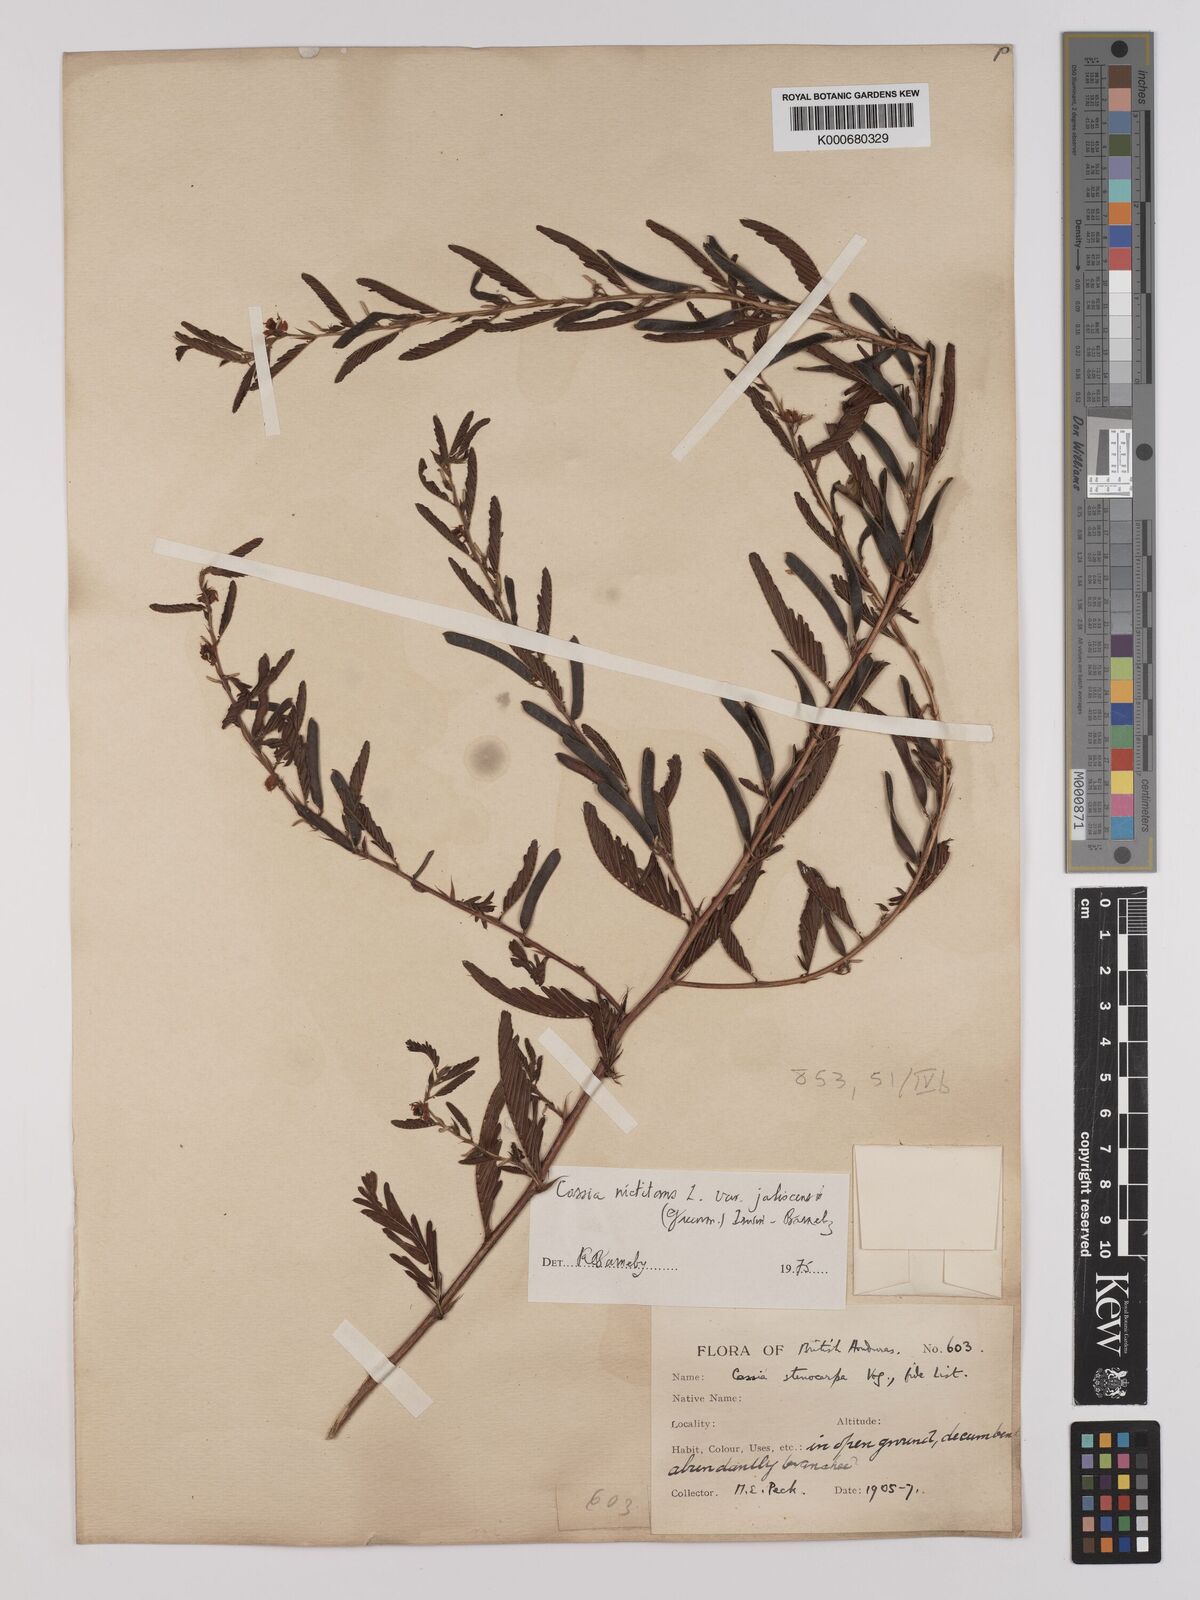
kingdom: Plantae
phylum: Tracheophyta
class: Magnoliopsida
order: Fabales
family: Fabaceae
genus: Chamaecrista
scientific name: Chamaecrista nictitans
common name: Sensitive cassia
